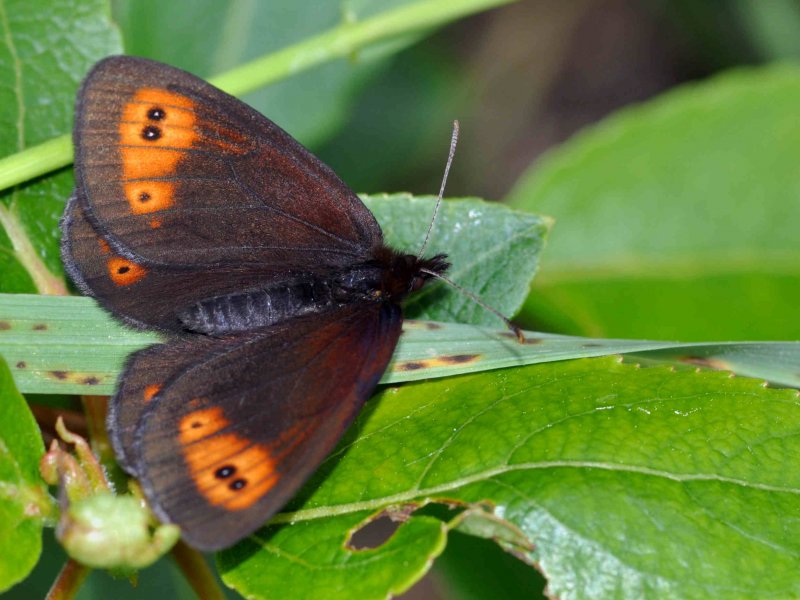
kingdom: Animalia
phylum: Arthropoda
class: Insecta
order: Lepidoptera
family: Nymphalidae
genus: Erebia
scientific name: Erebia epipsodea
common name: Common Alpine
